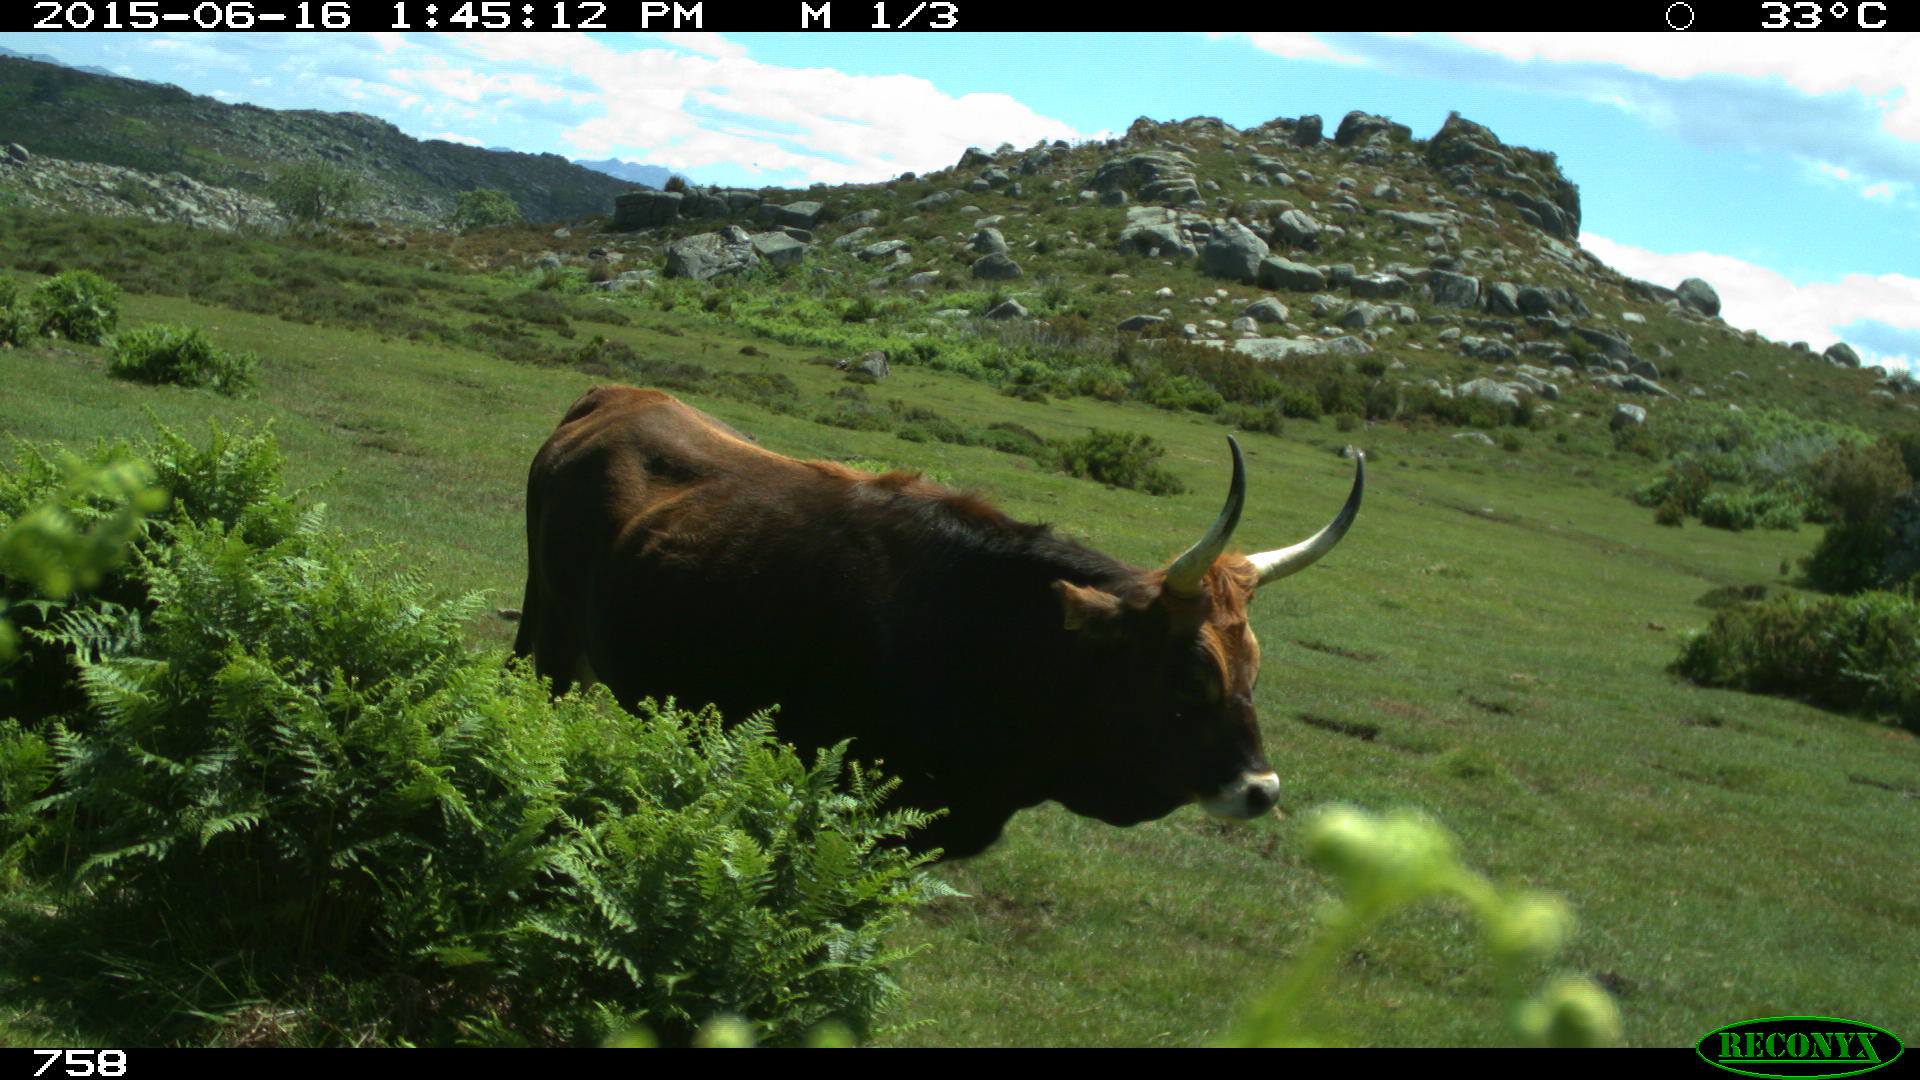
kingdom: Animalia
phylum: Chordata
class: Mammalia
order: Artiodactyla
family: Bovidae
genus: Bos
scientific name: Bos taurus
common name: Domesticated cattle
